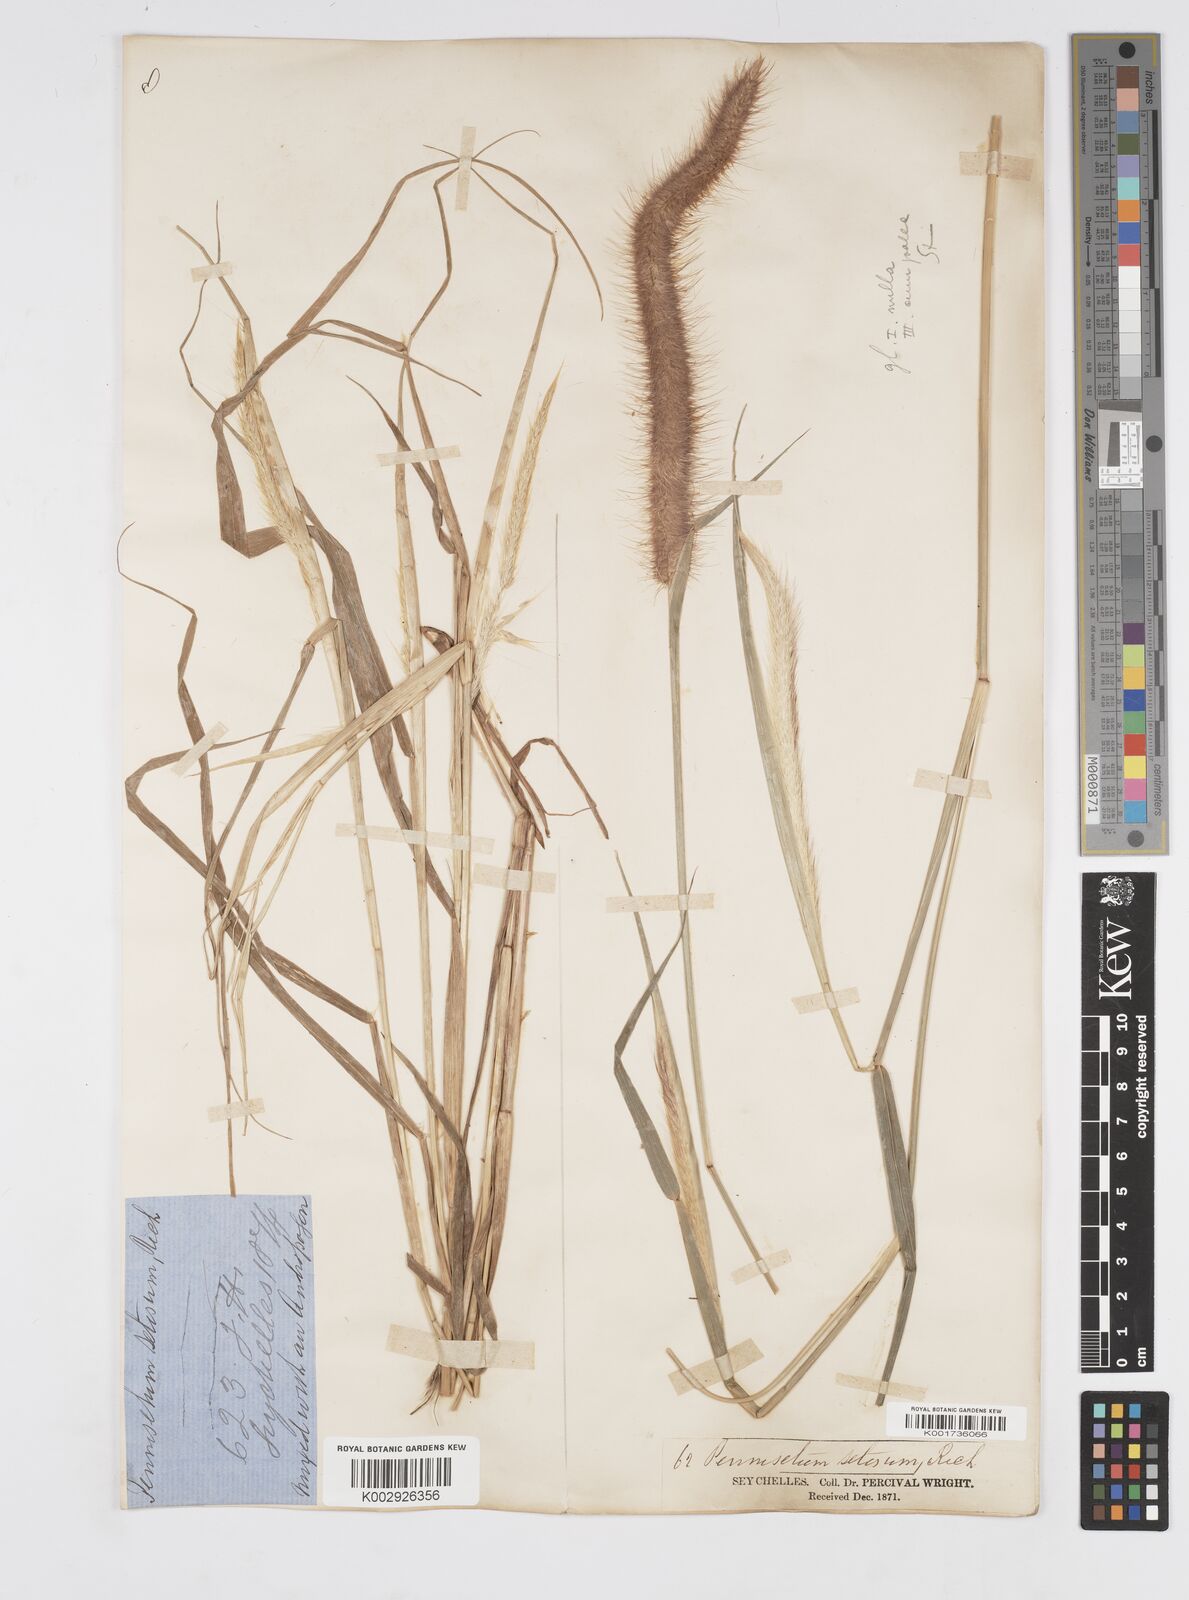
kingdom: Plantae
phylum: Tracheophyta
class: Liliopsida
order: Poales
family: Poaceae
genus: Setaria
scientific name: Setaria parviflora
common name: Knotroot bristle-grass
